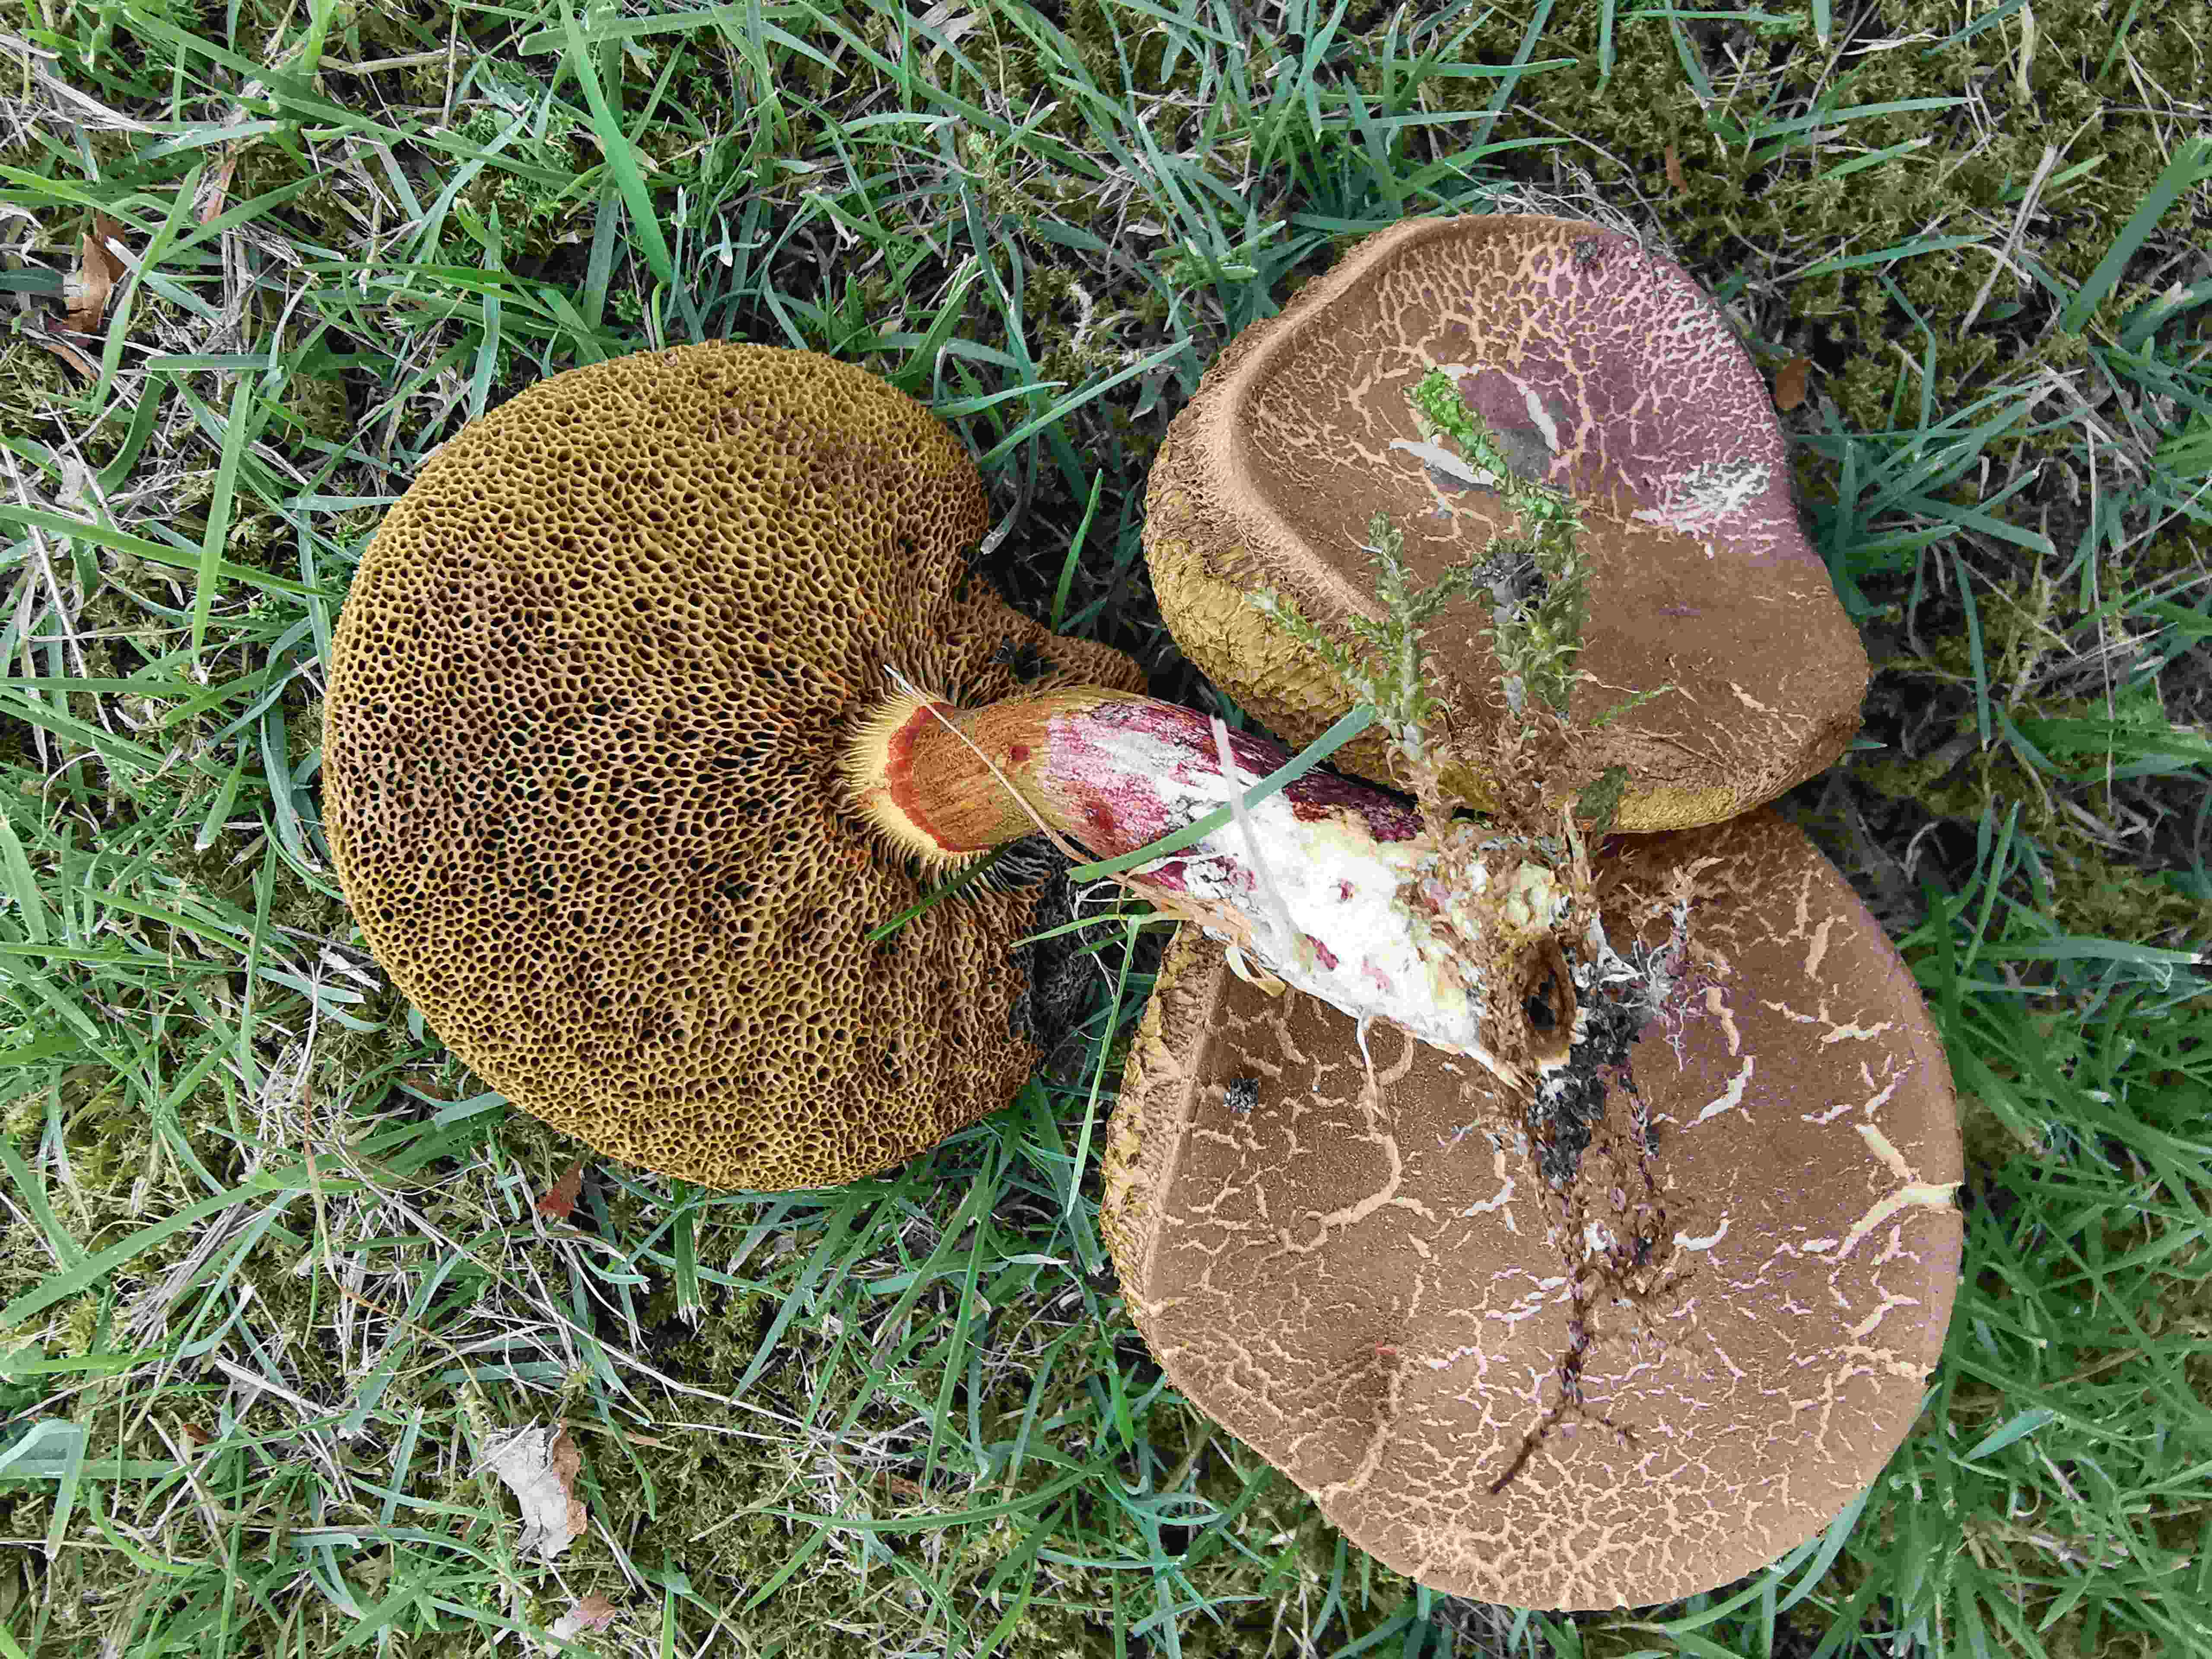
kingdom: Fungi
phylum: Basidiomycota
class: Agaricomycetes
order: Boletales
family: Boletaceae
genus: Xerocomellus
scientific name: Xerocomellus
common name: dværgrørhat
